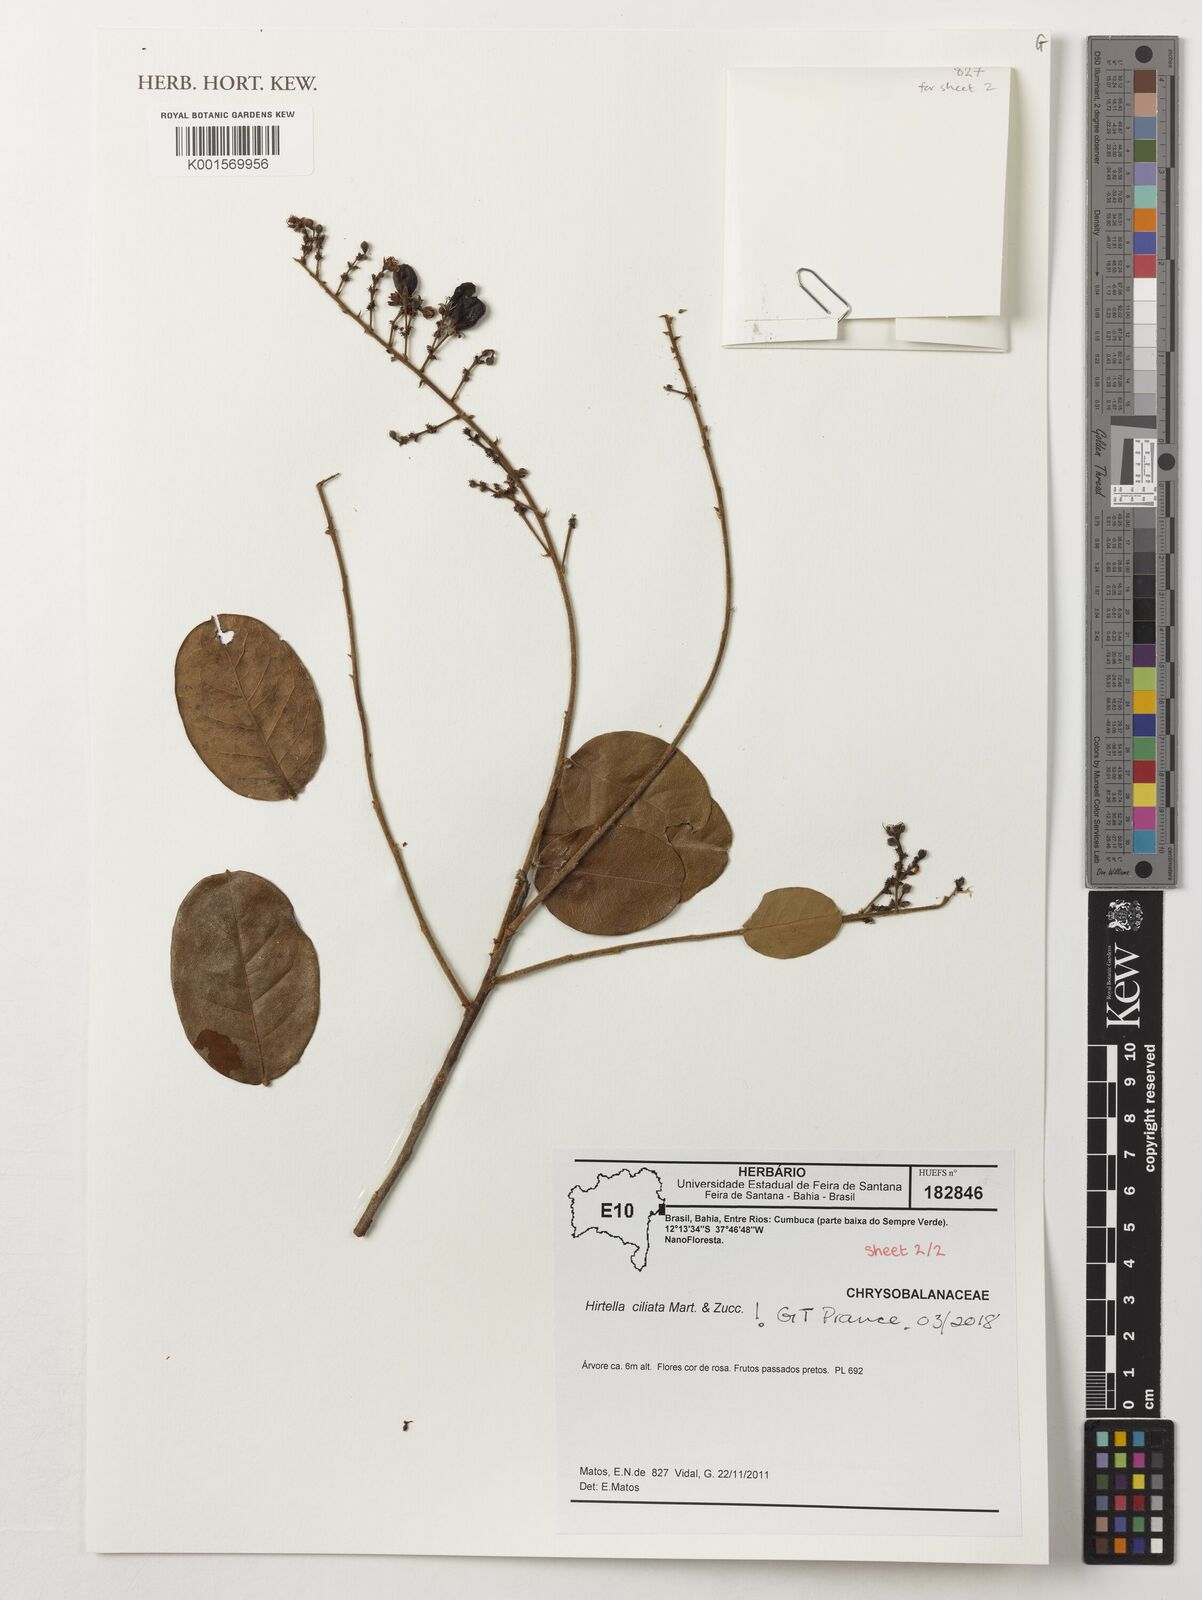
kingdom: Plantae
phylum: Tracheophyta
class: Magnoliopsida
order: Malpighiales
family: Chrysobalanaceae
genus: Hirtella
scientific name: Hirtella ciliata
